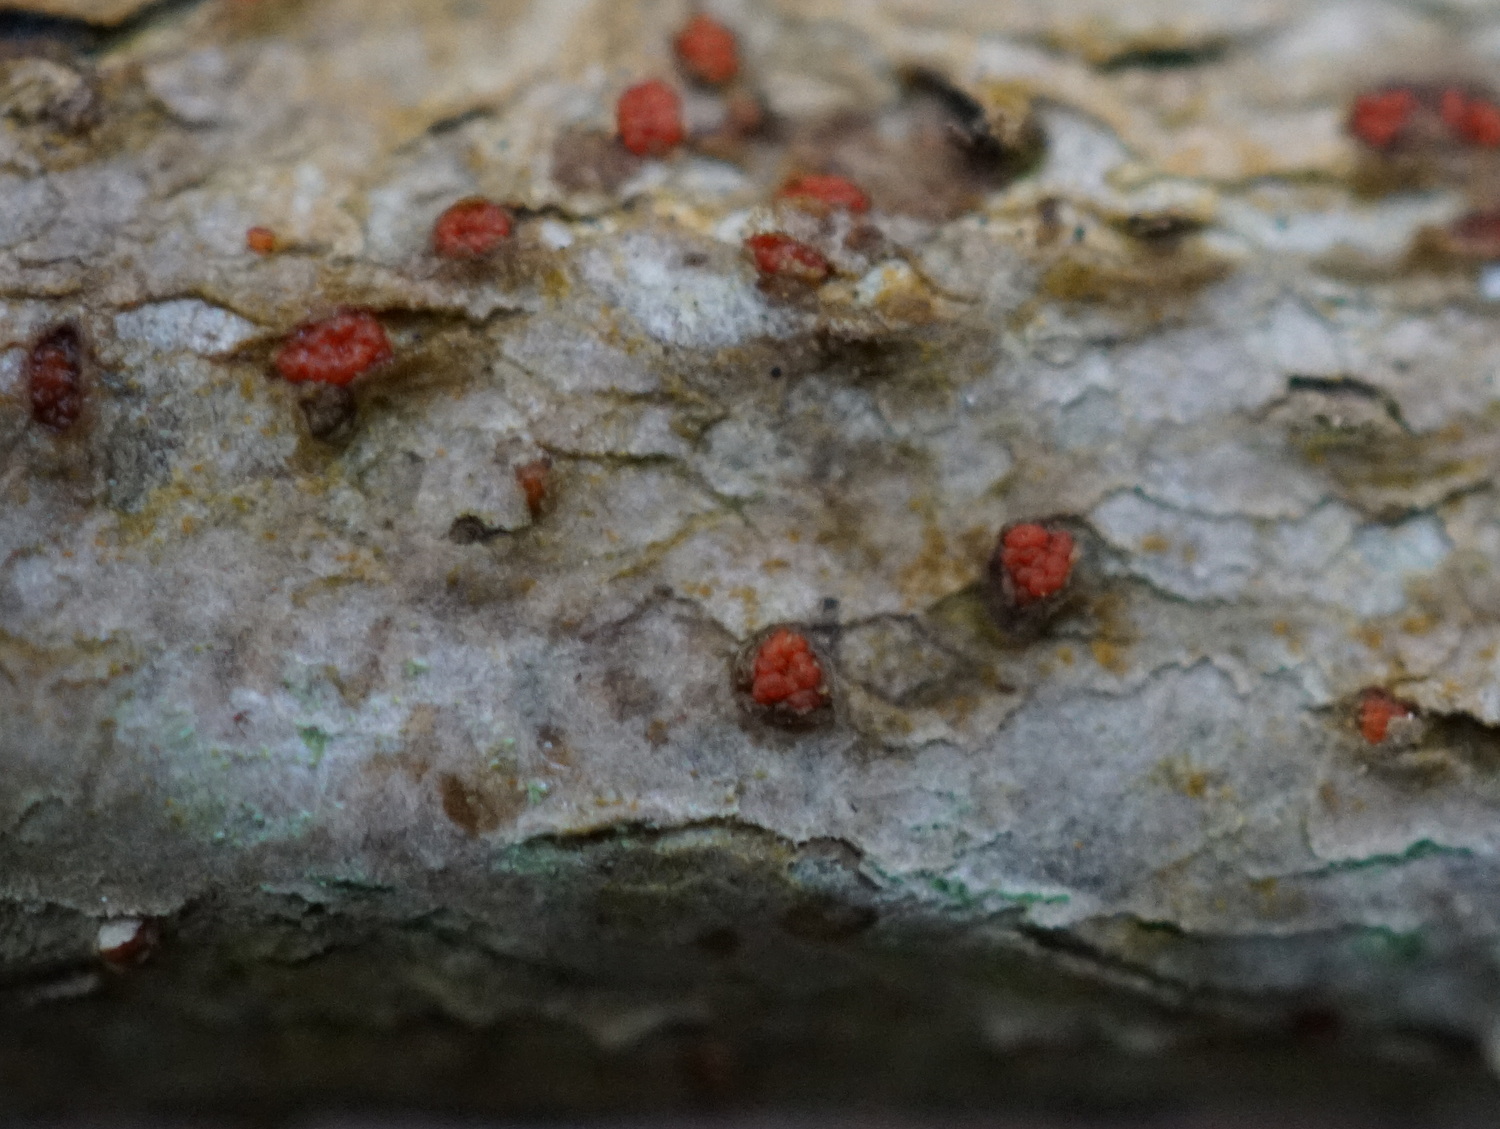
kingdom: Fungi
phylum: Ascomycota
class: Sordariomycetes
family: Thyridiaceae
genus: Thyronectria
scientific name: Thyronectria sinopica
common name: vedbend-cinnobersvamp
